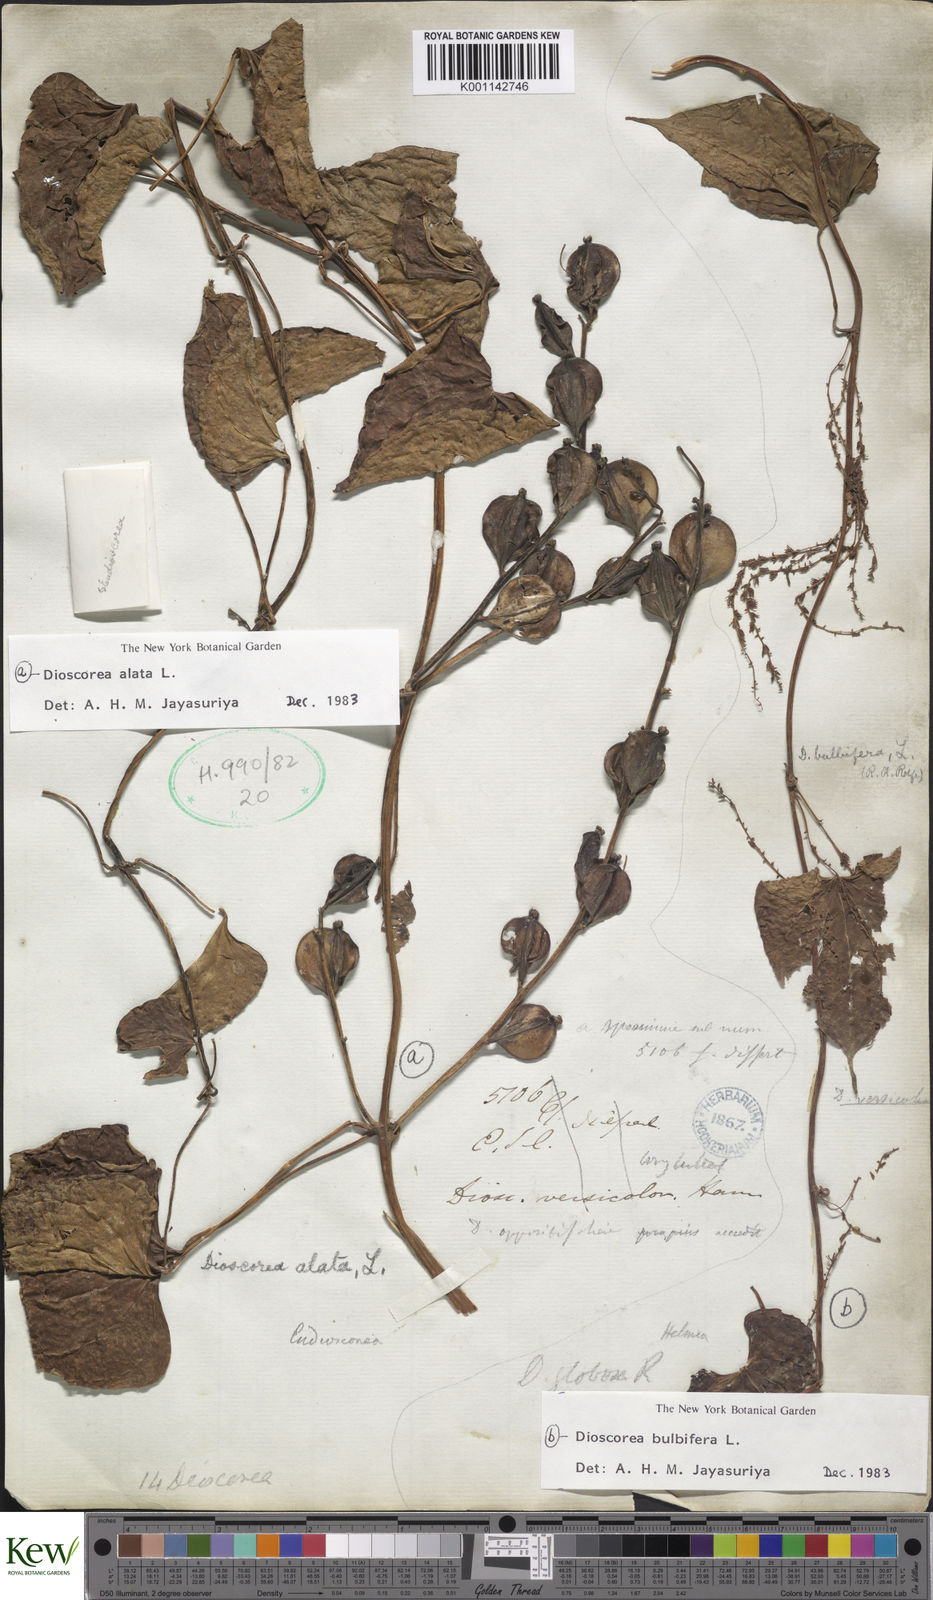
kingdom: Plantae
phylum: Tracheophyta
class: Liliopsida
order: Dioscoreales
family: Dioscoreaceae
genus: Dioscorea
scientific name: Dioscorea alata
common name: Water yam
